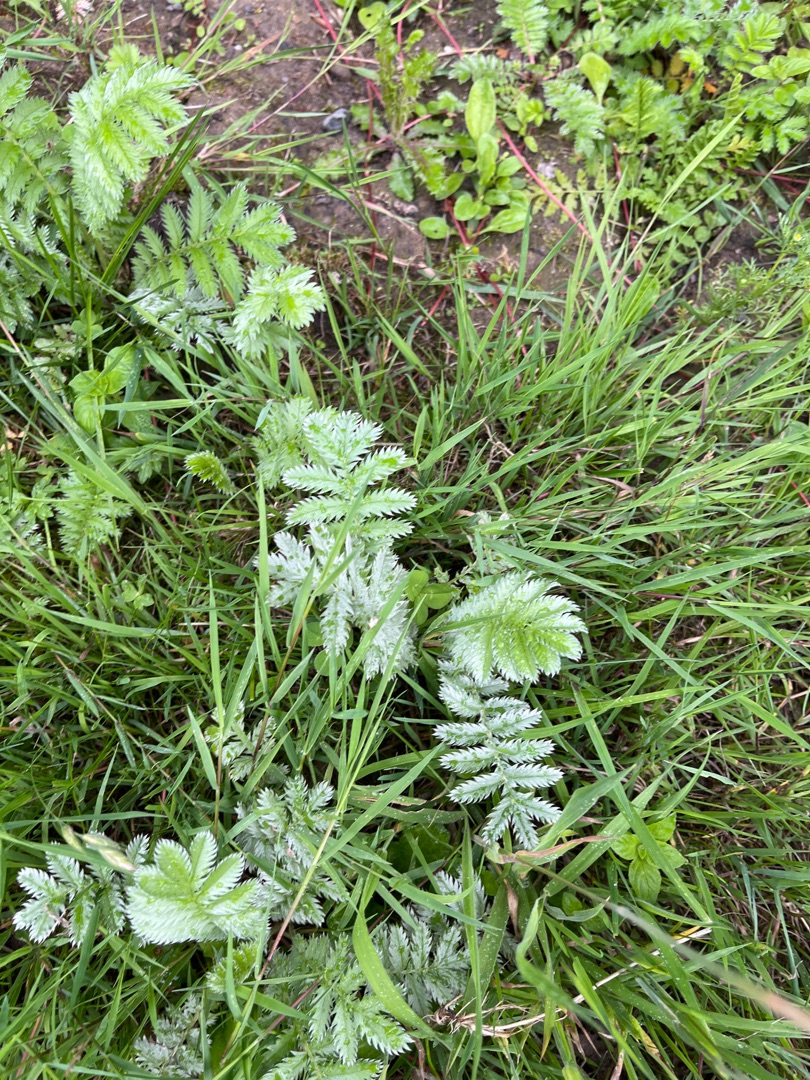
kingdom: Plantae
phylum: Tracheophyta
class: Magnoliopsida
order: Rosales
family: Rosaceae
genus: Argentina
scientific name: Argentina anserina
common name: Gåsepotentil
